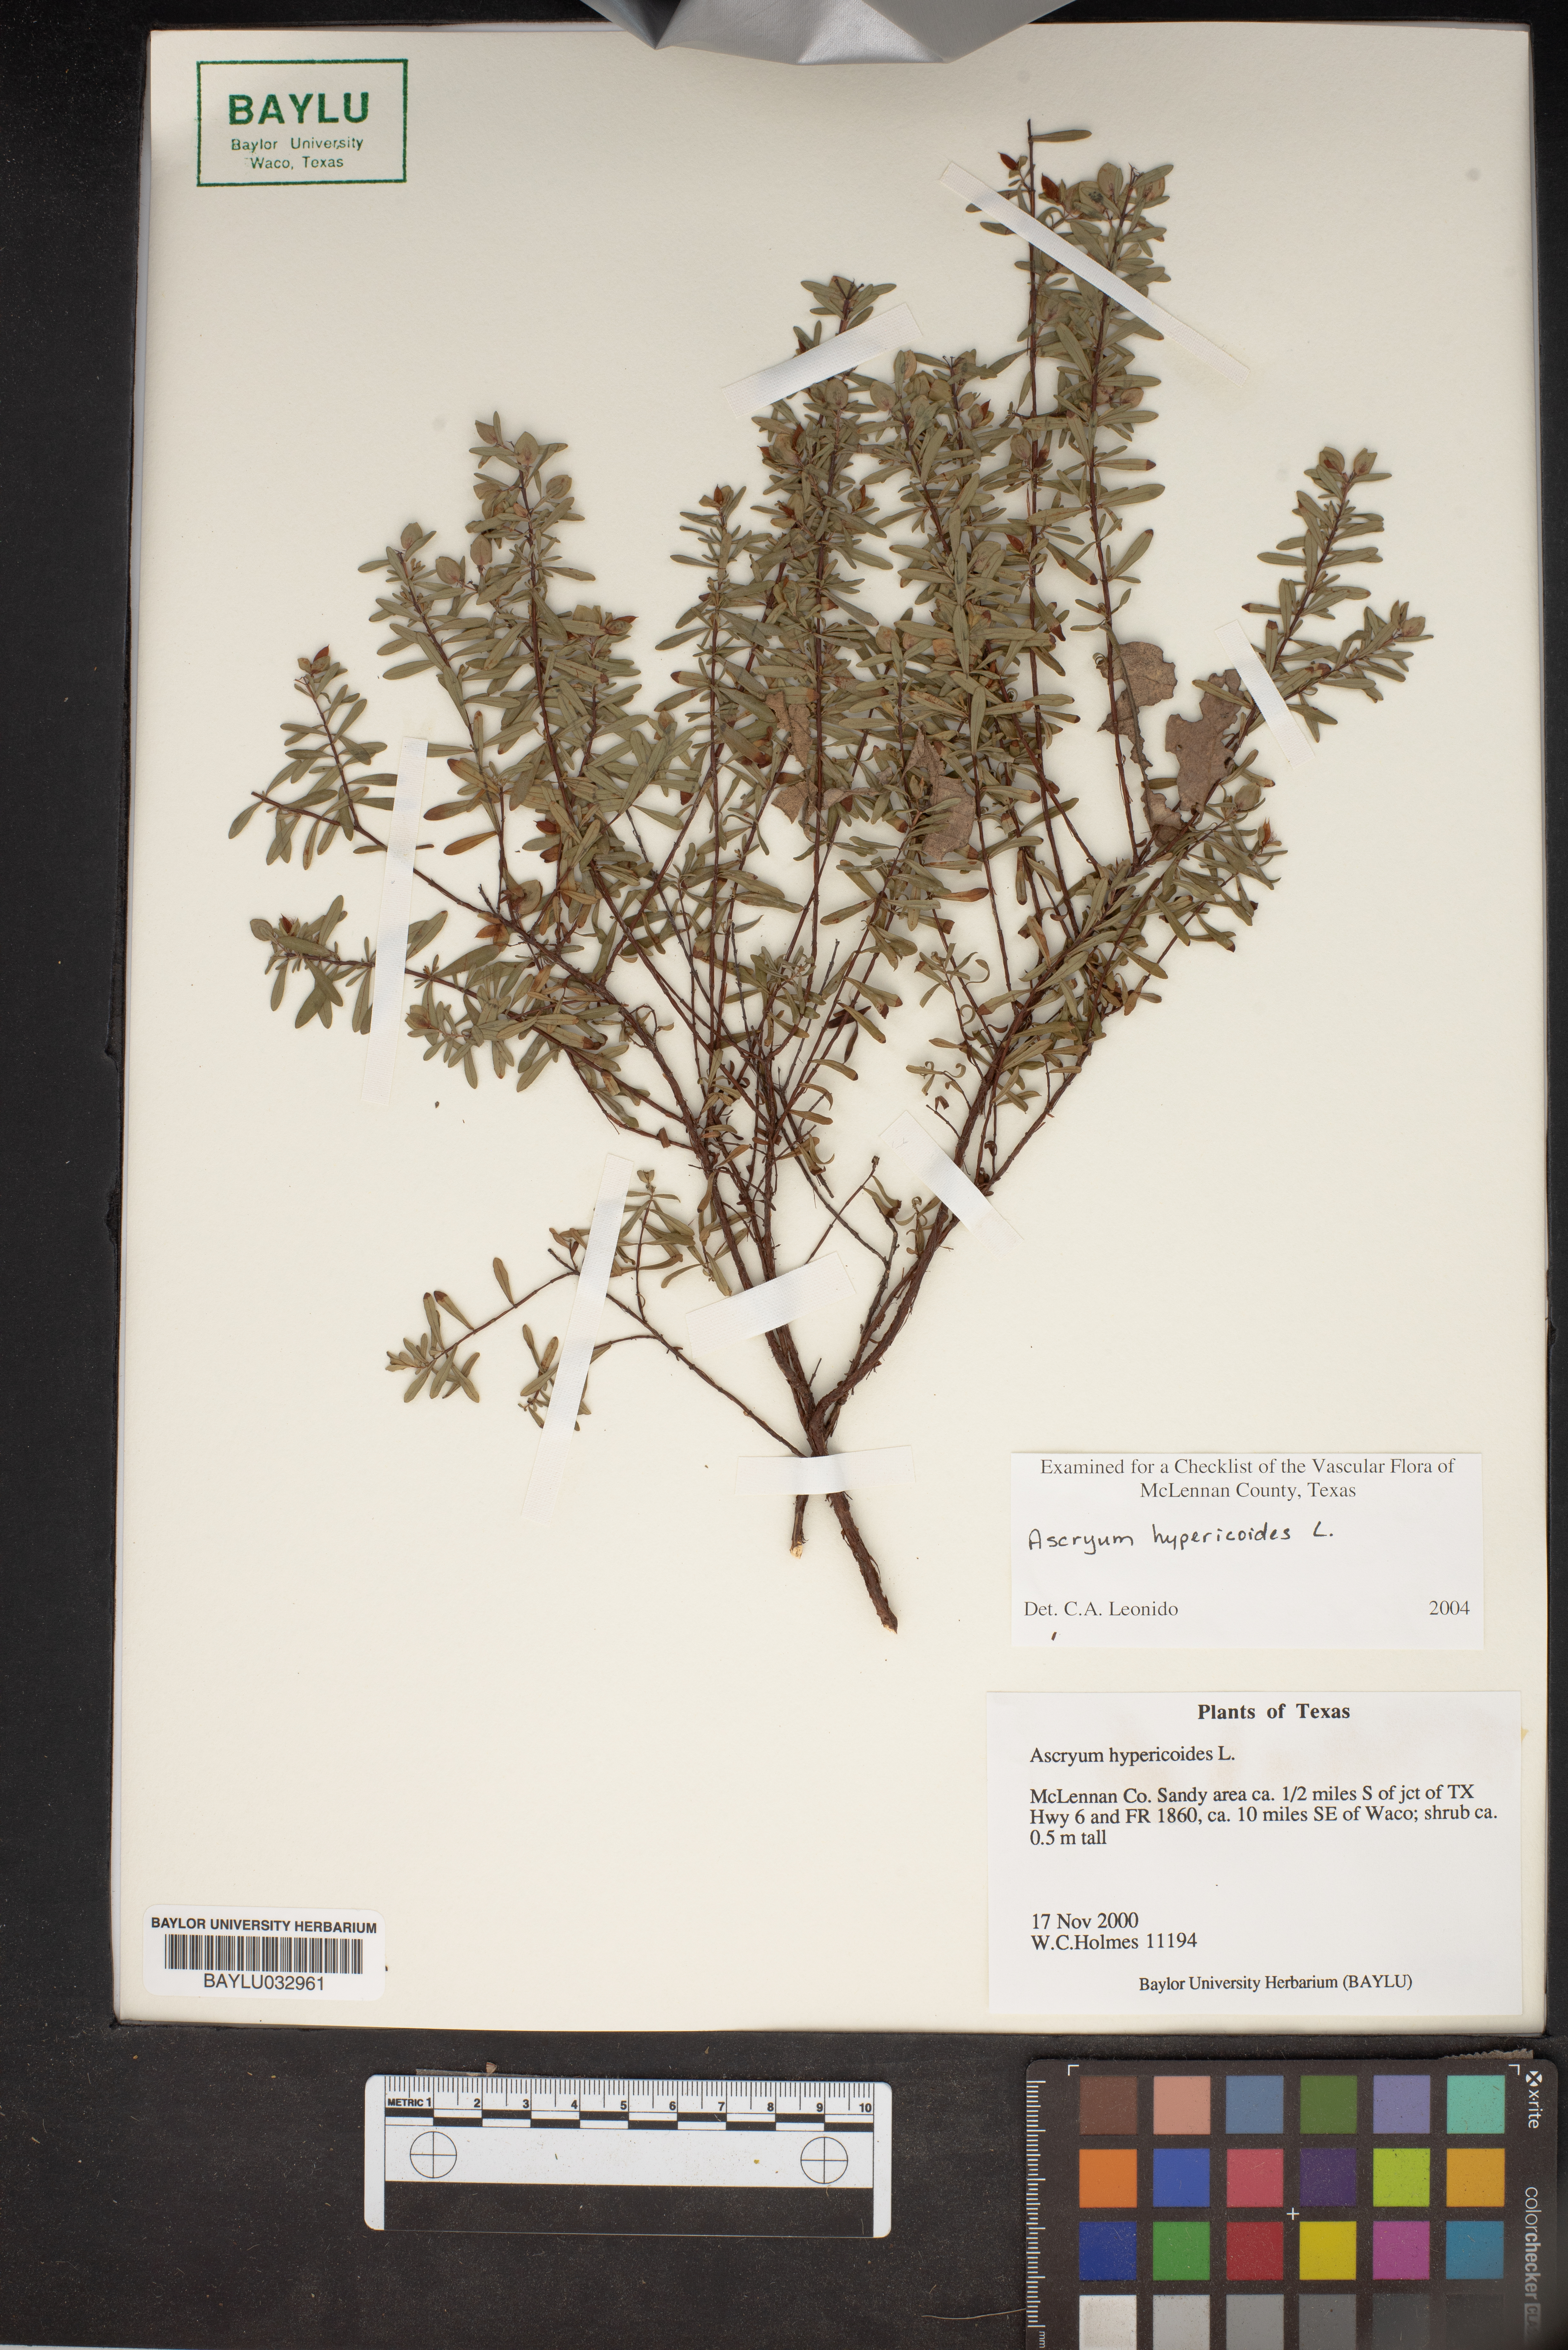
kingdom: Plantae
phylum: Tracheophyta
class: Magnoliopsida
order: Malpighiales
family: Hypericaceae
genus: Hypericum
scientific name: Hypericum hypericoides
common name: St. andrew's cross
